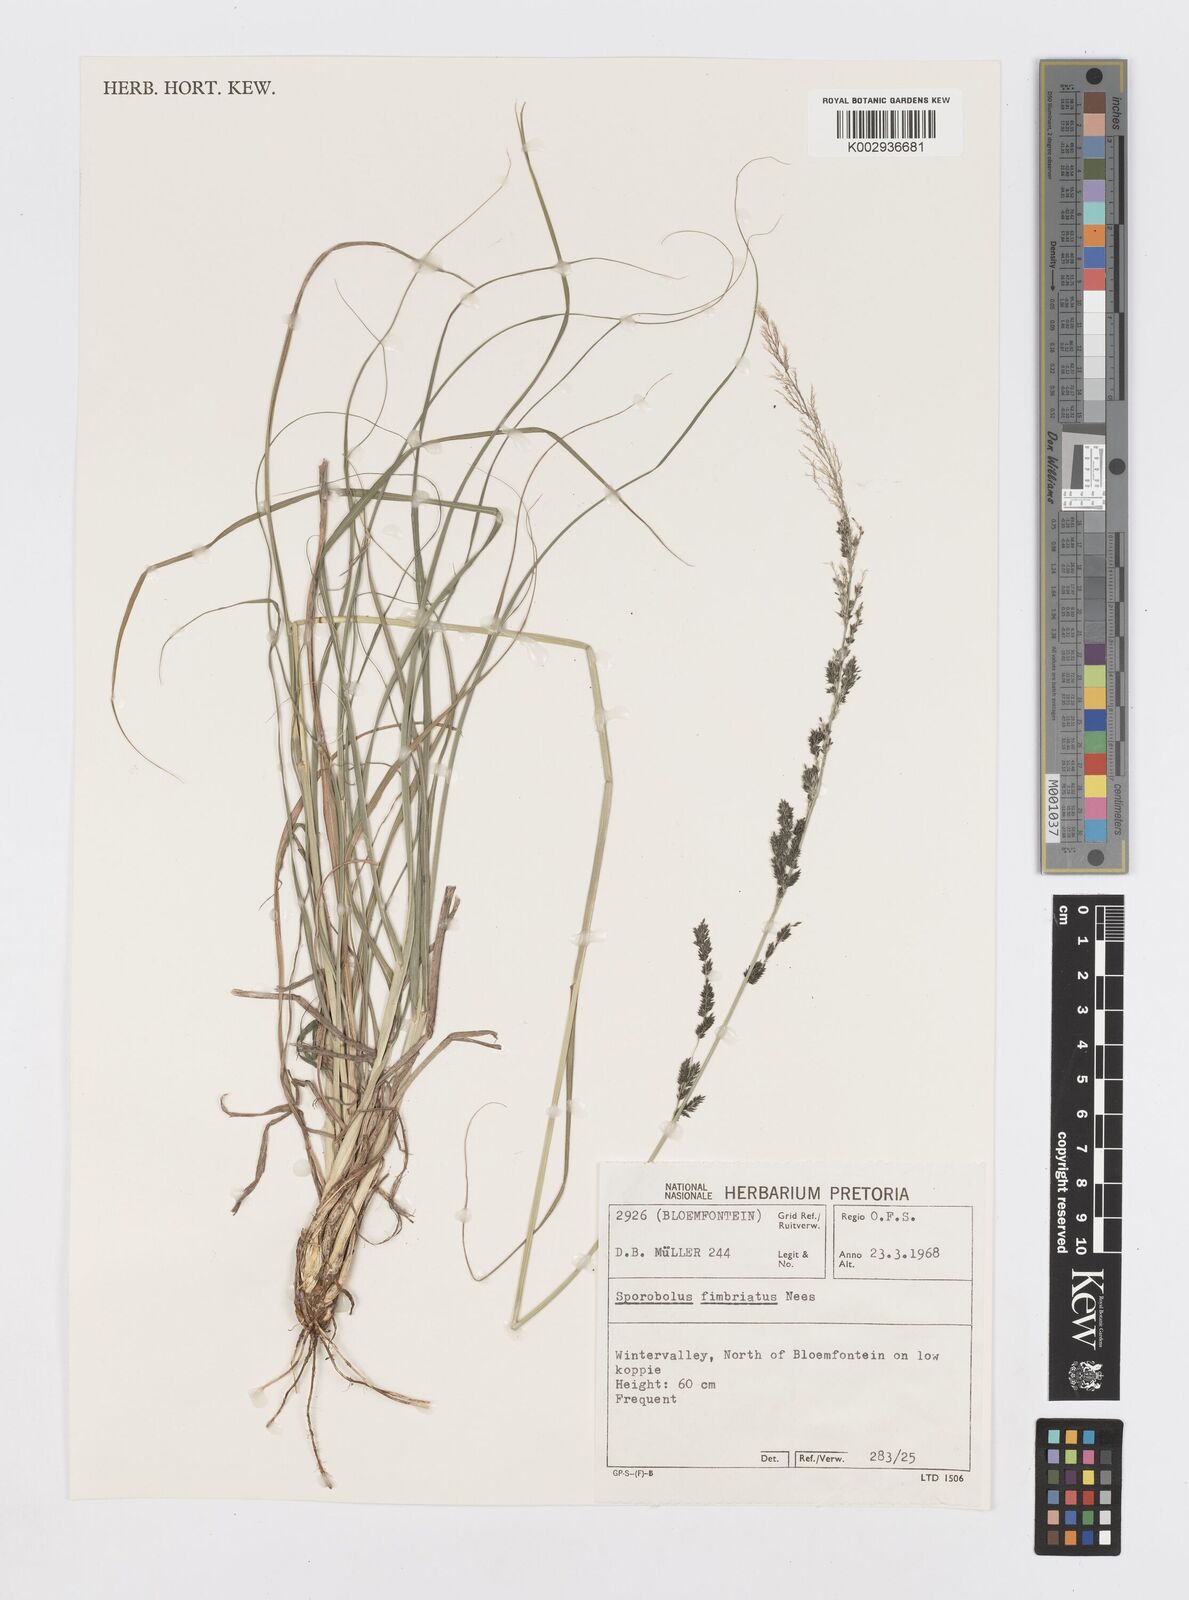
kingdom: Plantae
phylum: Tracheophyta
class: Liliopsida
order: Poales
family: Poaceae
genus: Sporobolus
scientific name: Sporobolus fimbriatus
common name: Fringed dropseed
